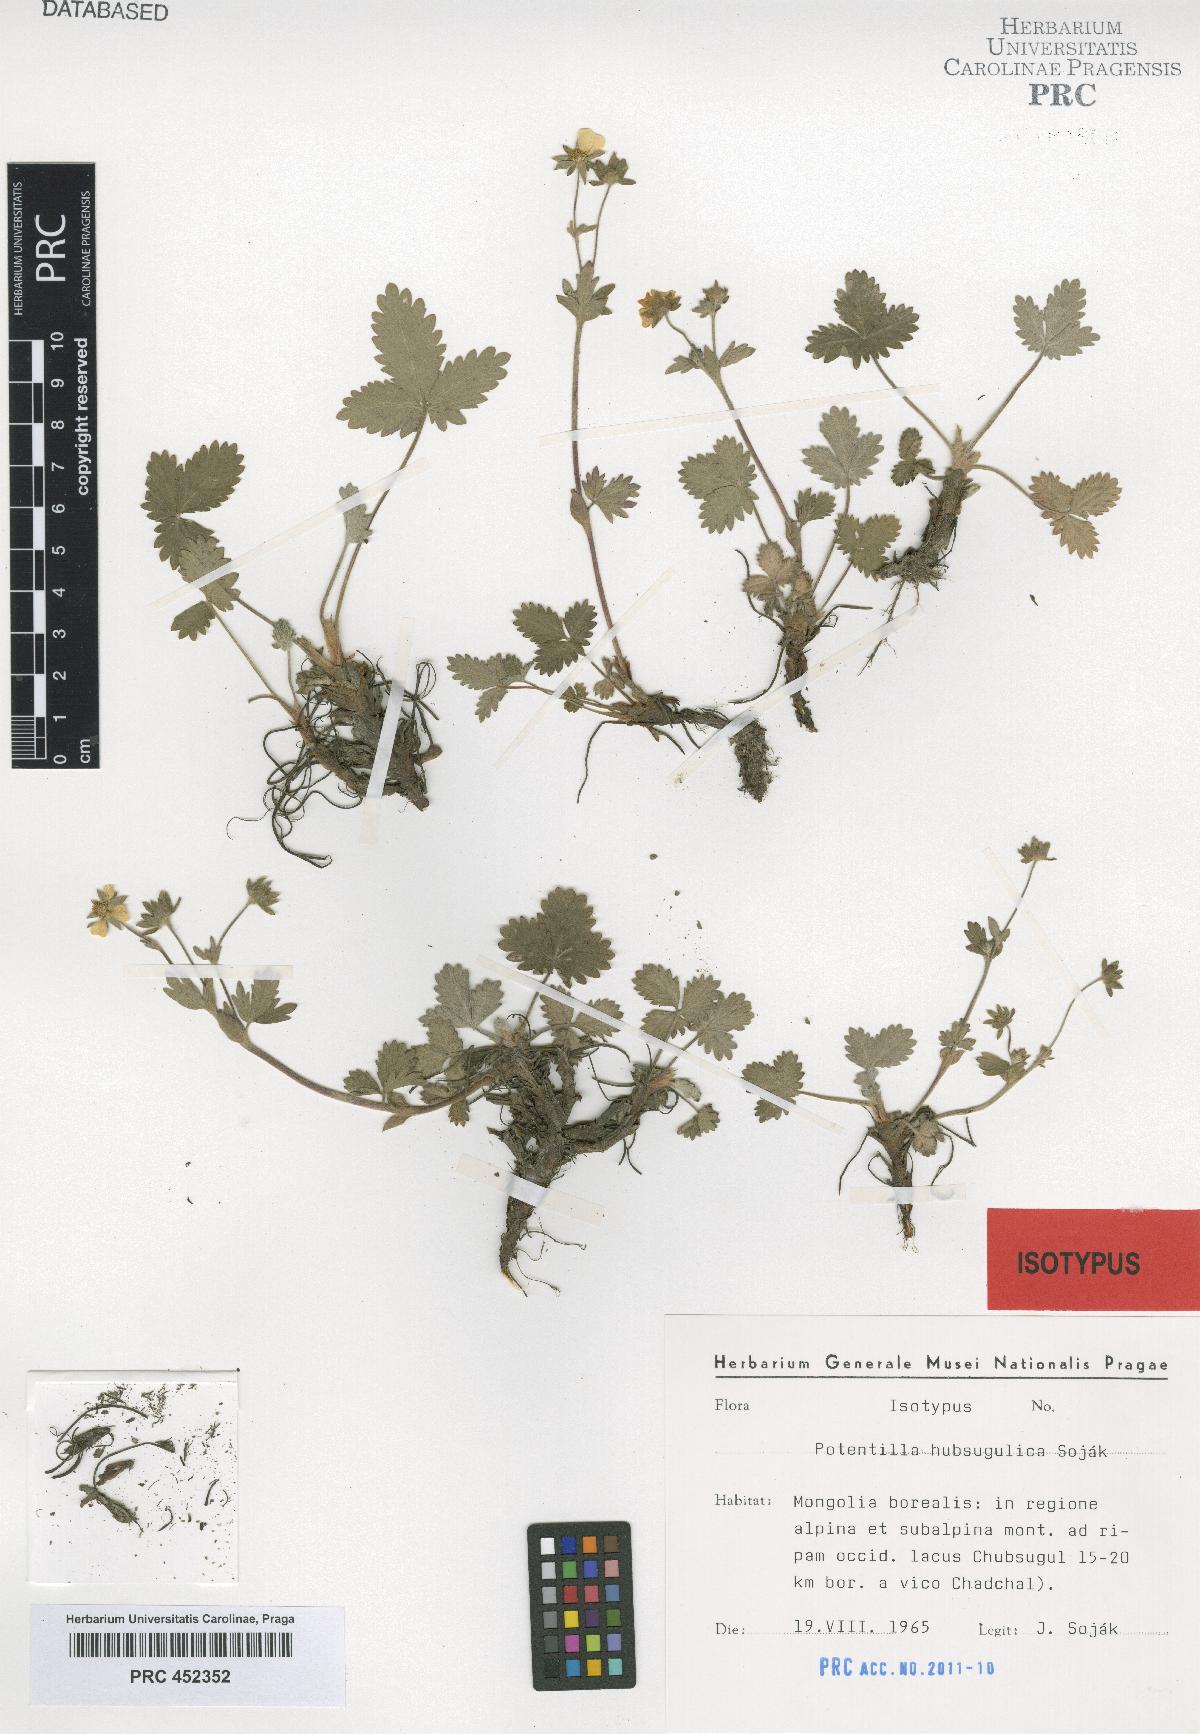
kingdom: Plantae
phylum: Tracheophyta
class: Magnoliopsida
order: Rosales
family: Rosaceae
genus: Potentilla
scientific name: Potentilla hubsugulica
